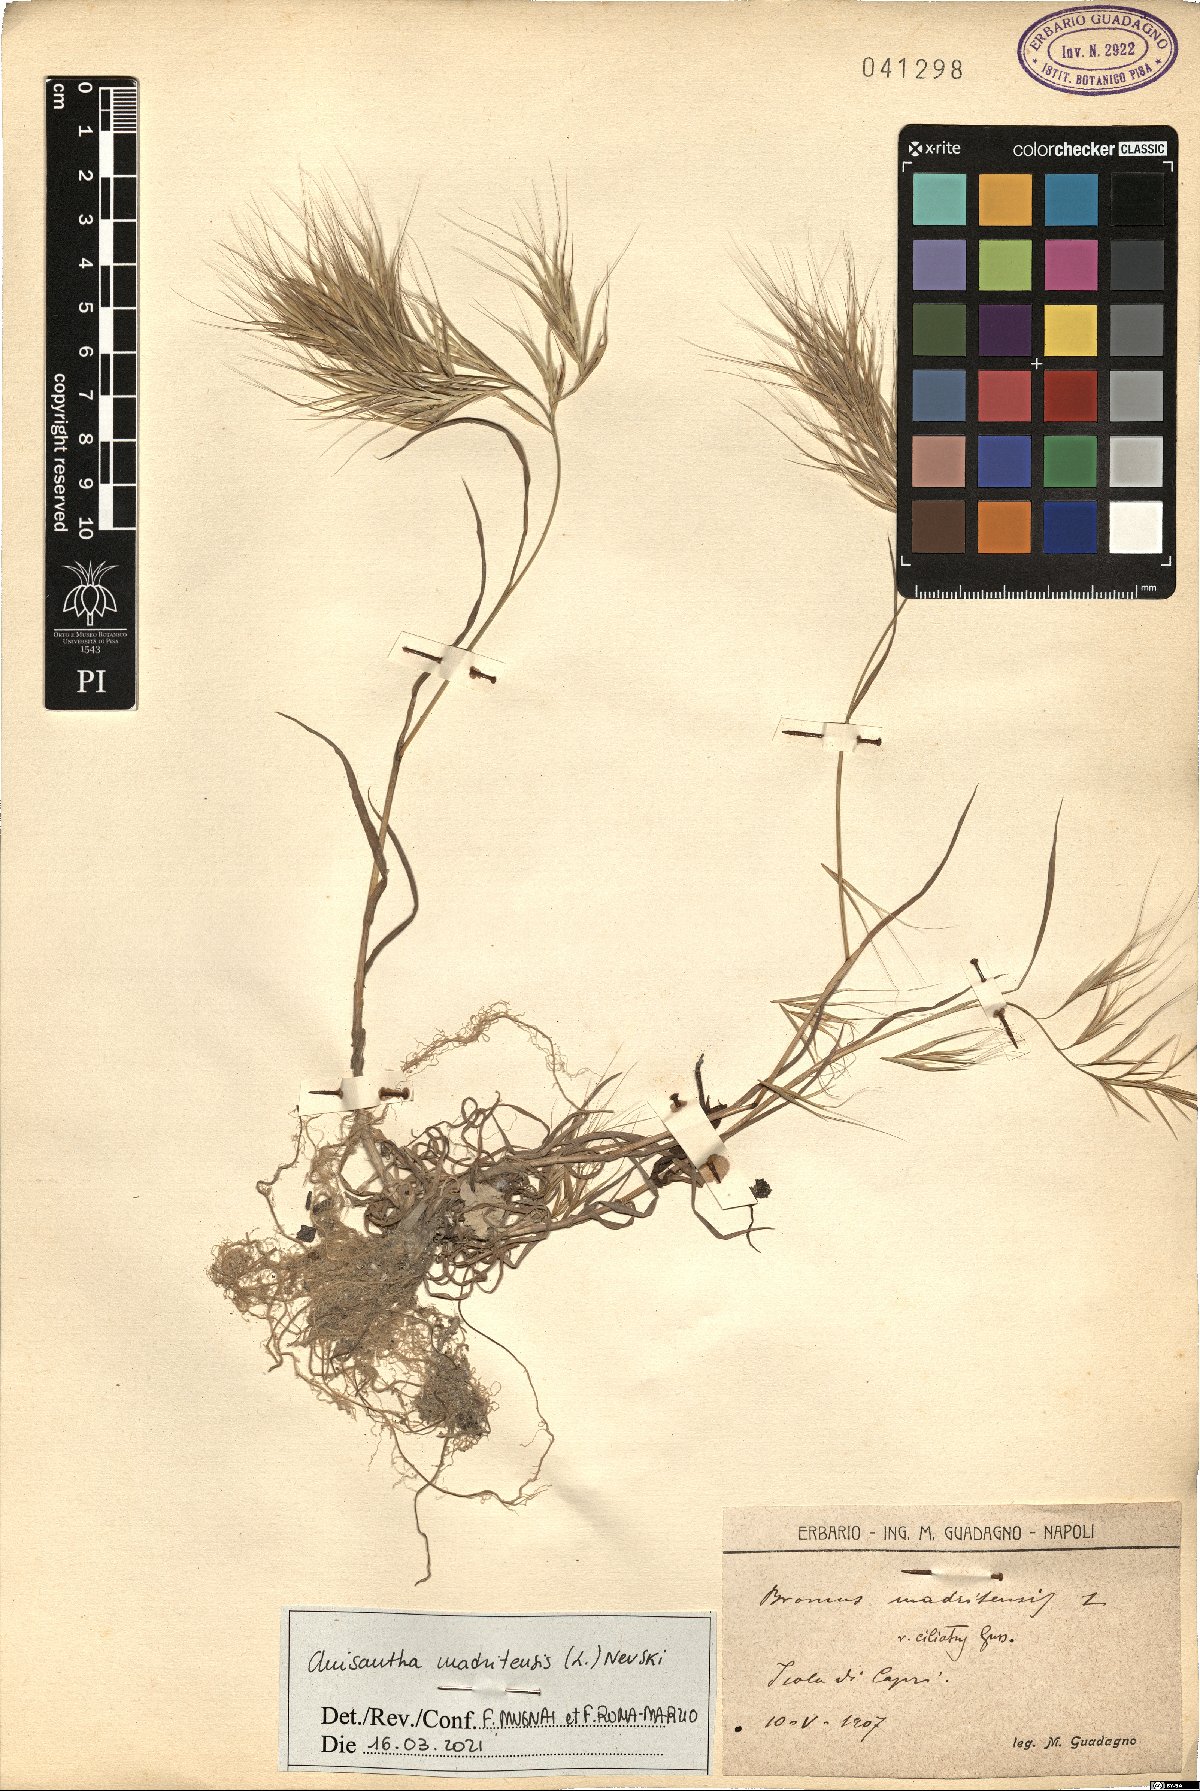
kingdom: Plantae
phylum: Tracheophyta
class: Liliopsida
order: Poales
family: Poaceae
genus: Bromus
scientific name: Bromus madritensis
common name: Compact brome
